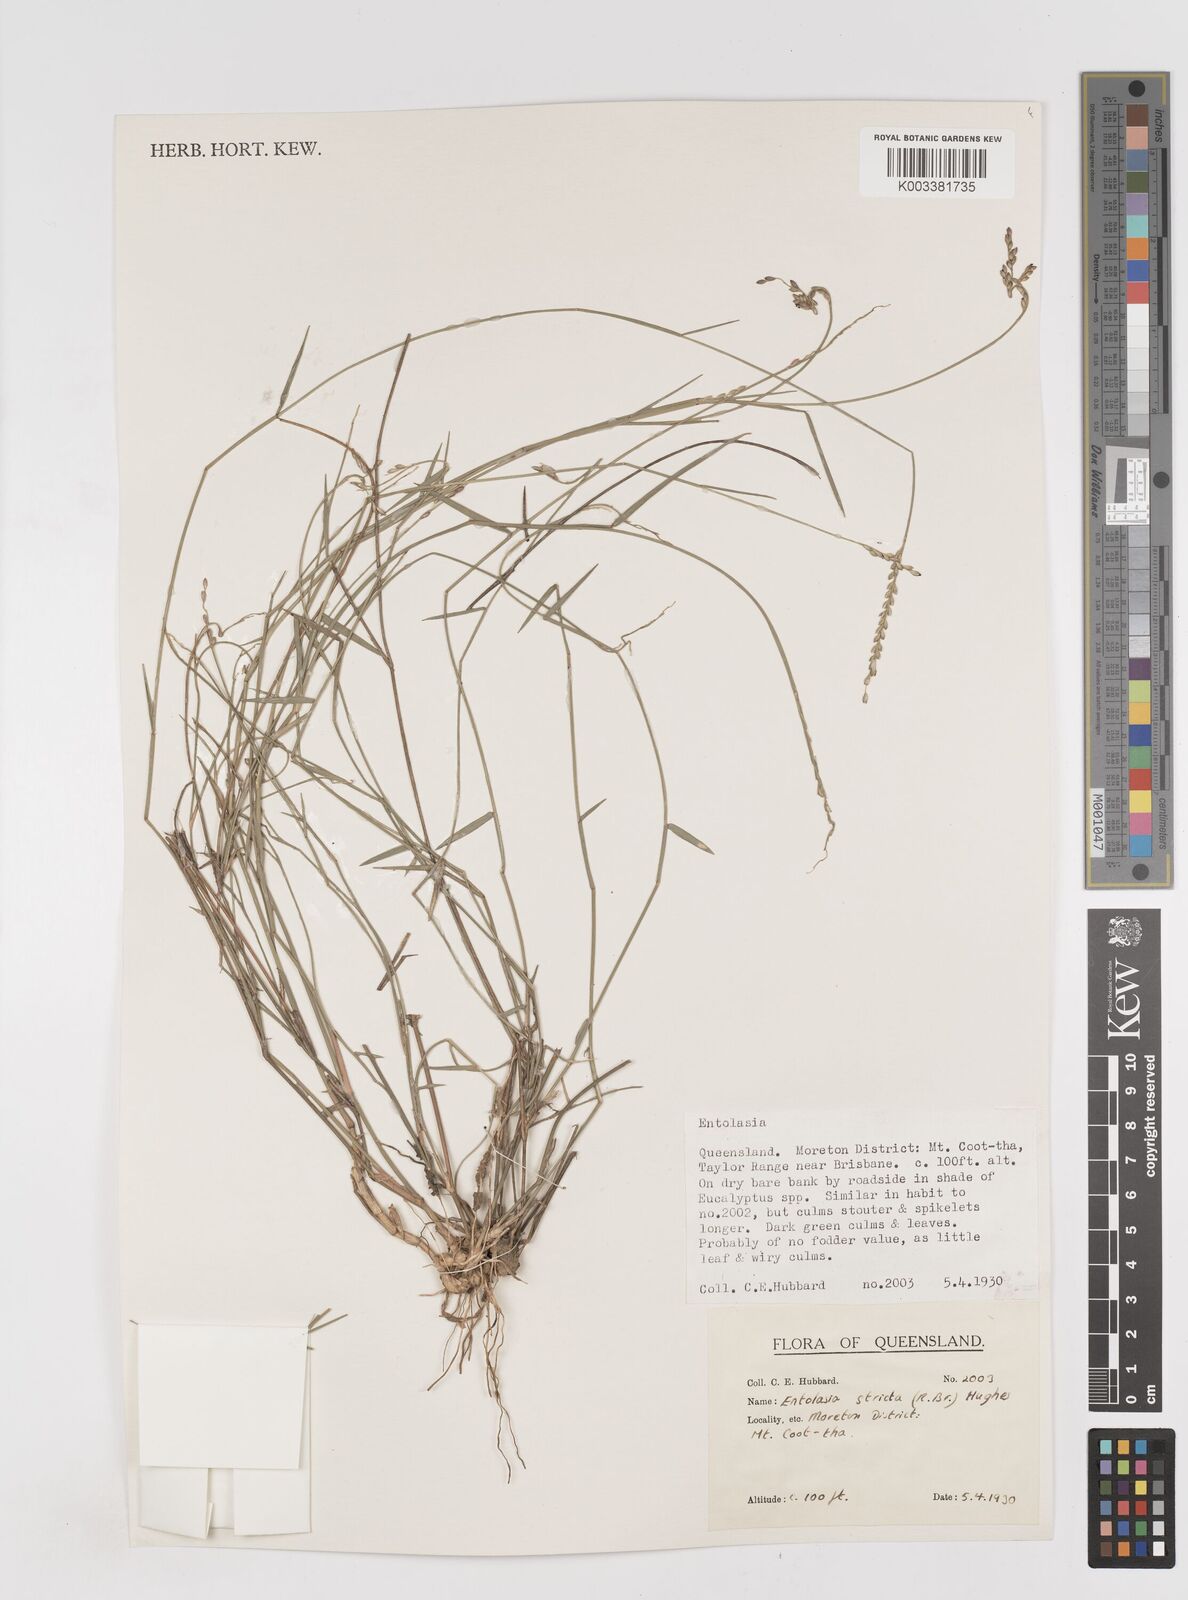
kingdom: Plantae
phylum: Tracheophyta
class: Liliopsida
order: Poales
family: Poaceae
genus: Entolasia
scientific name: Entolasia stricta
